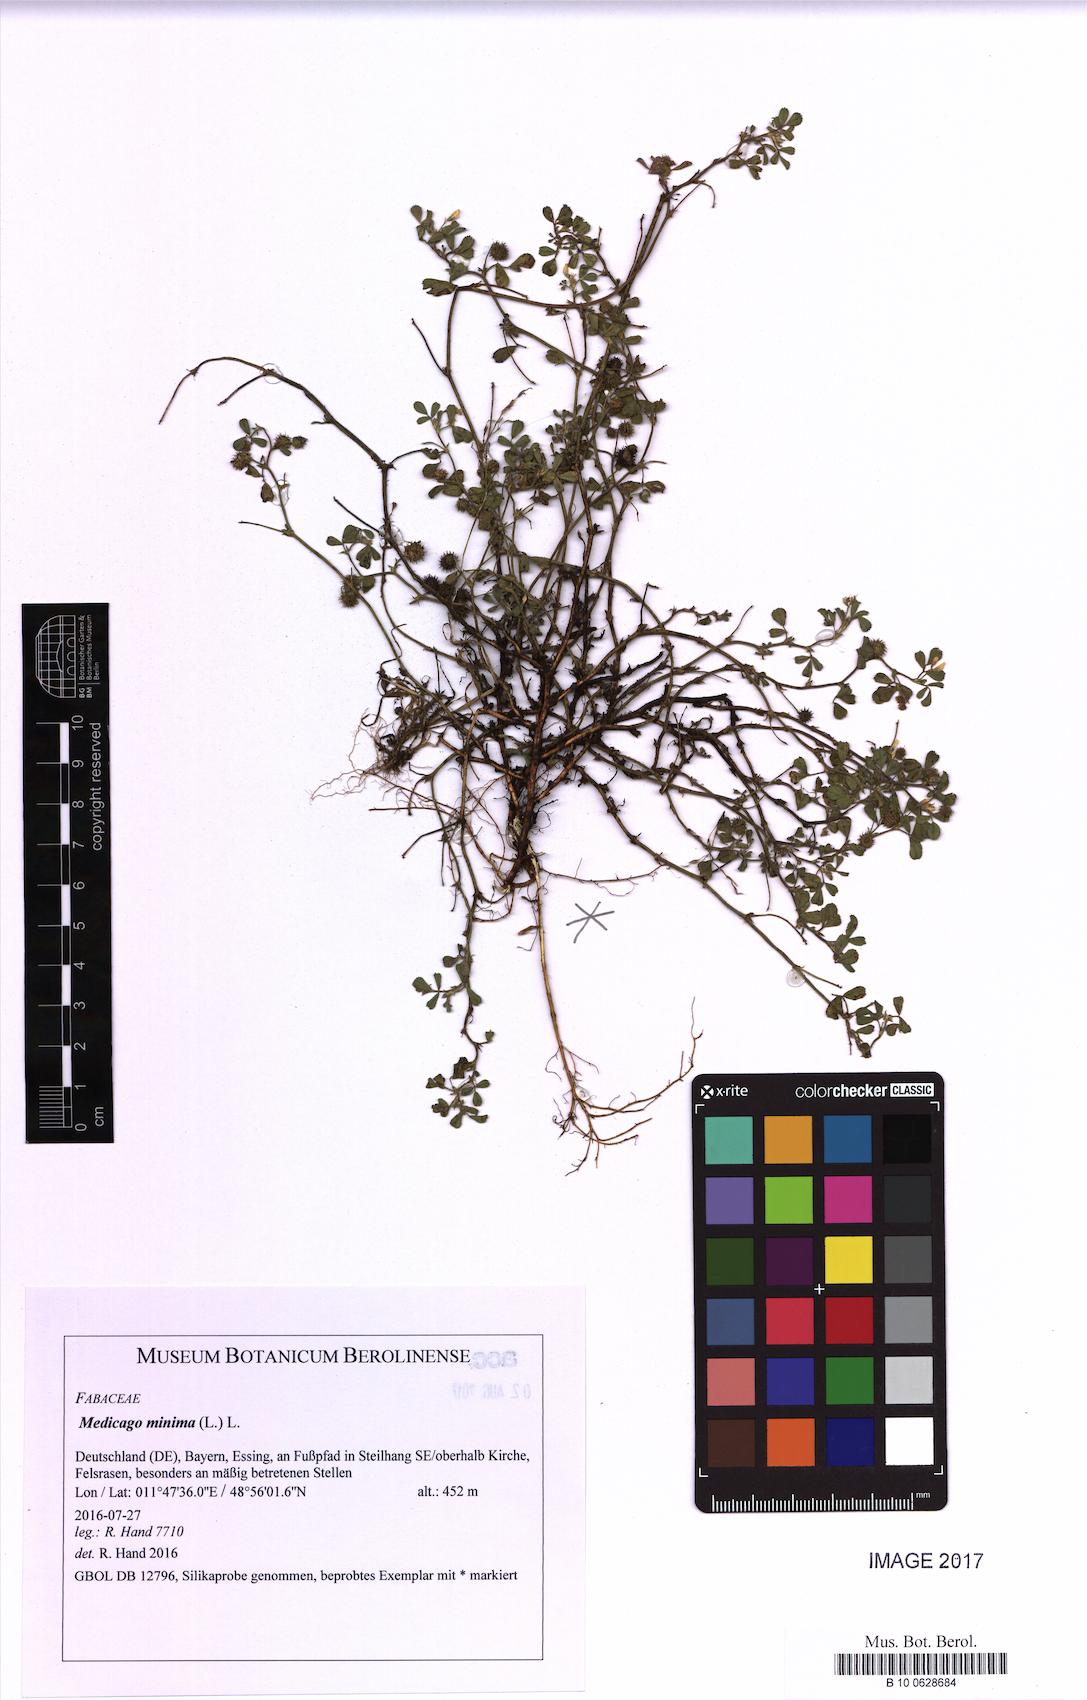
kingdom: Plantae
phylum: Tracheophyta
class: Magnoliopsida
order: Fabales
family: Fabaceae
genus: Medicago
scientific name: Medicago minima
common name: Little bur-clover
